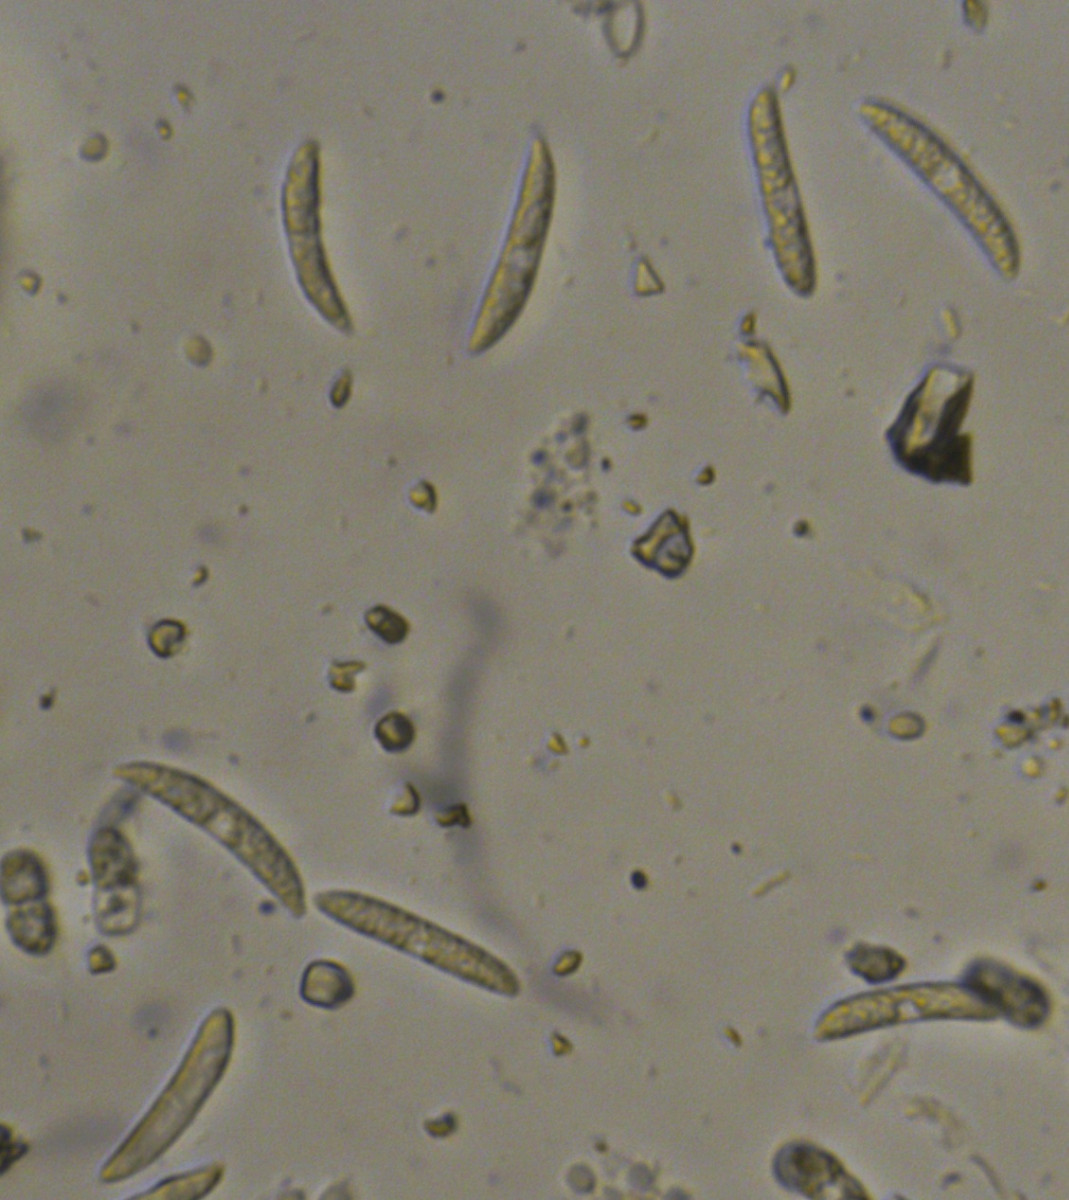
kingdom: Fungi
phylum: Ascomycota
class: Sordariomycetes
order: Glomerellales
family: Glomerellaceae
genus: Colletotrichum
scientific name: Colletotrichum trichellum
